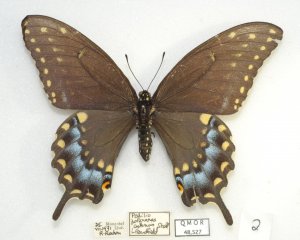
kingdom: Animalia
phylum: Arthropoda
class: Insecta
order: Lepidoptera
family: Papilionidae
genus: Papilio
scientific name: Papilio polyxenes
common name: Black Swallowtail
